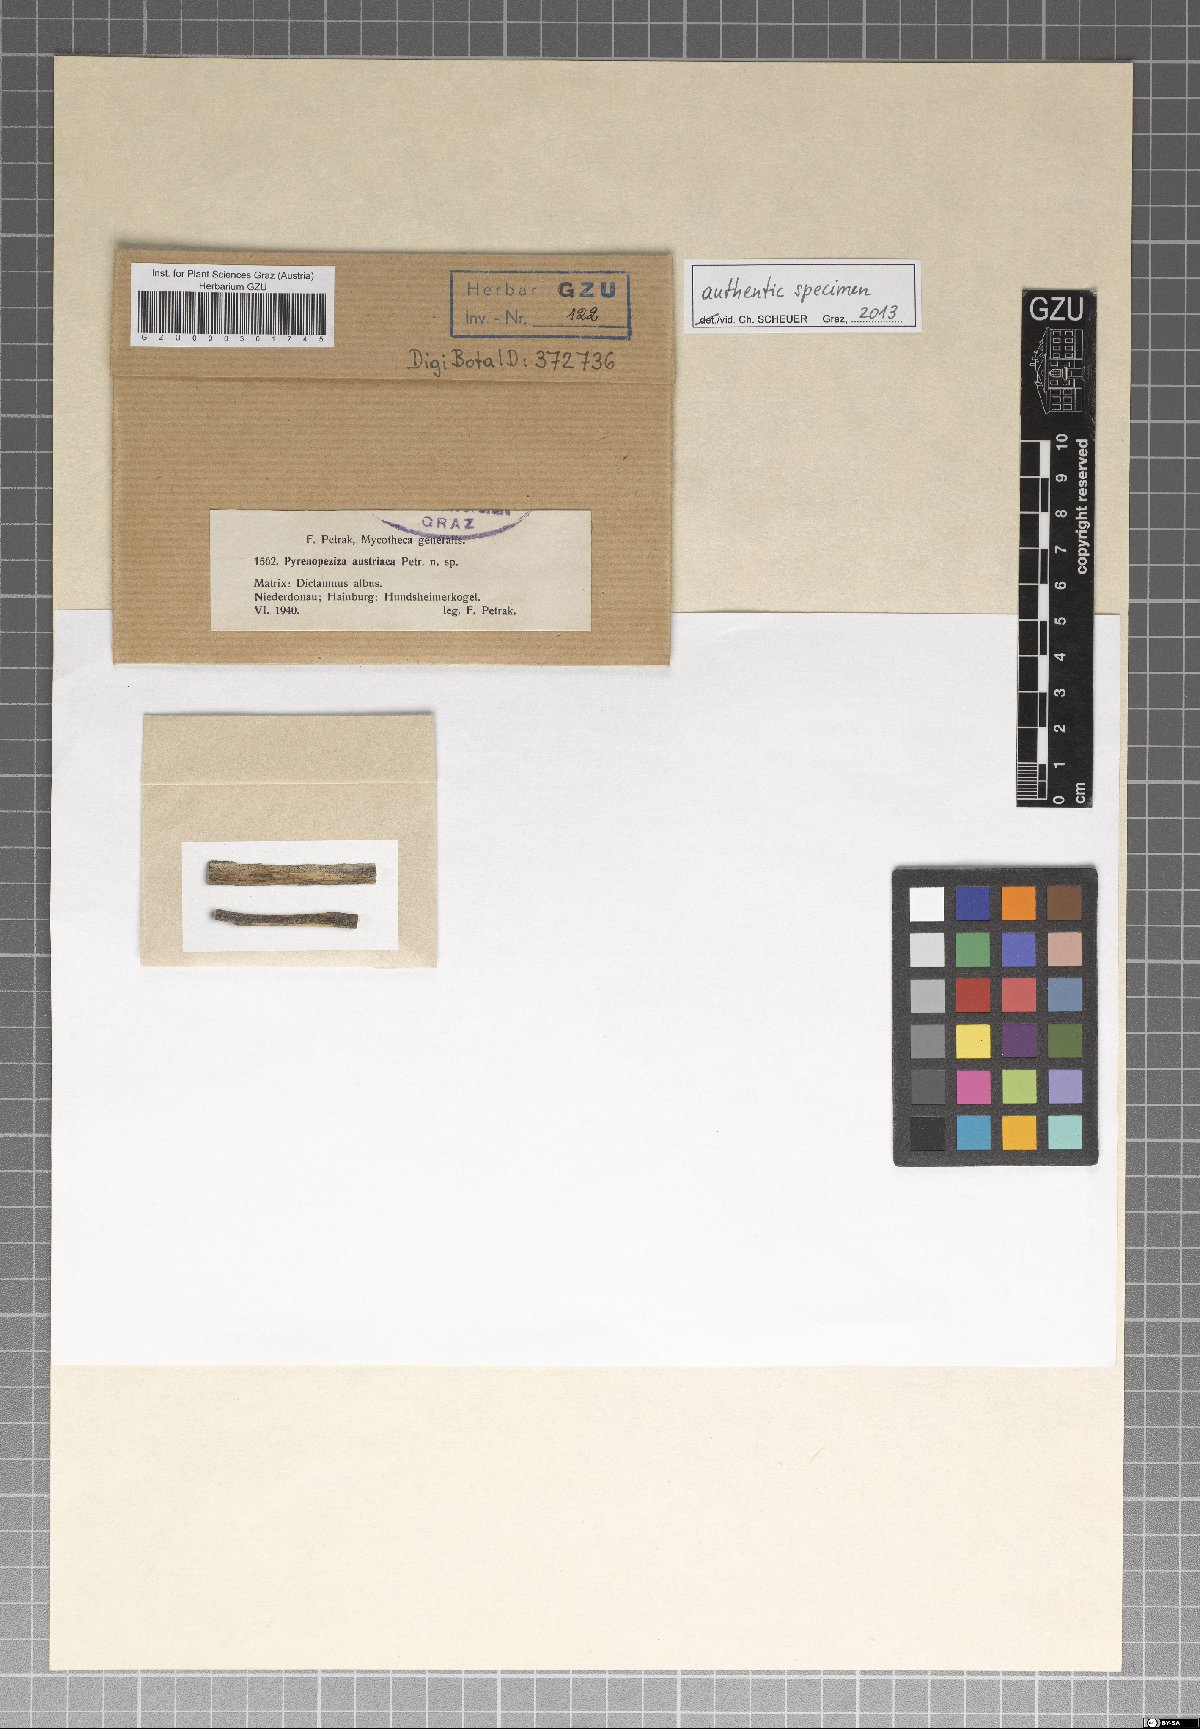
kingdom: Fungi
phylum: Ascomycota
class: Leotiomycetes
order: Helotiales
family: Ploettnerulaceae
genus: Pyrenopeziza
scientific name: Pyrenopeziza austriaca
